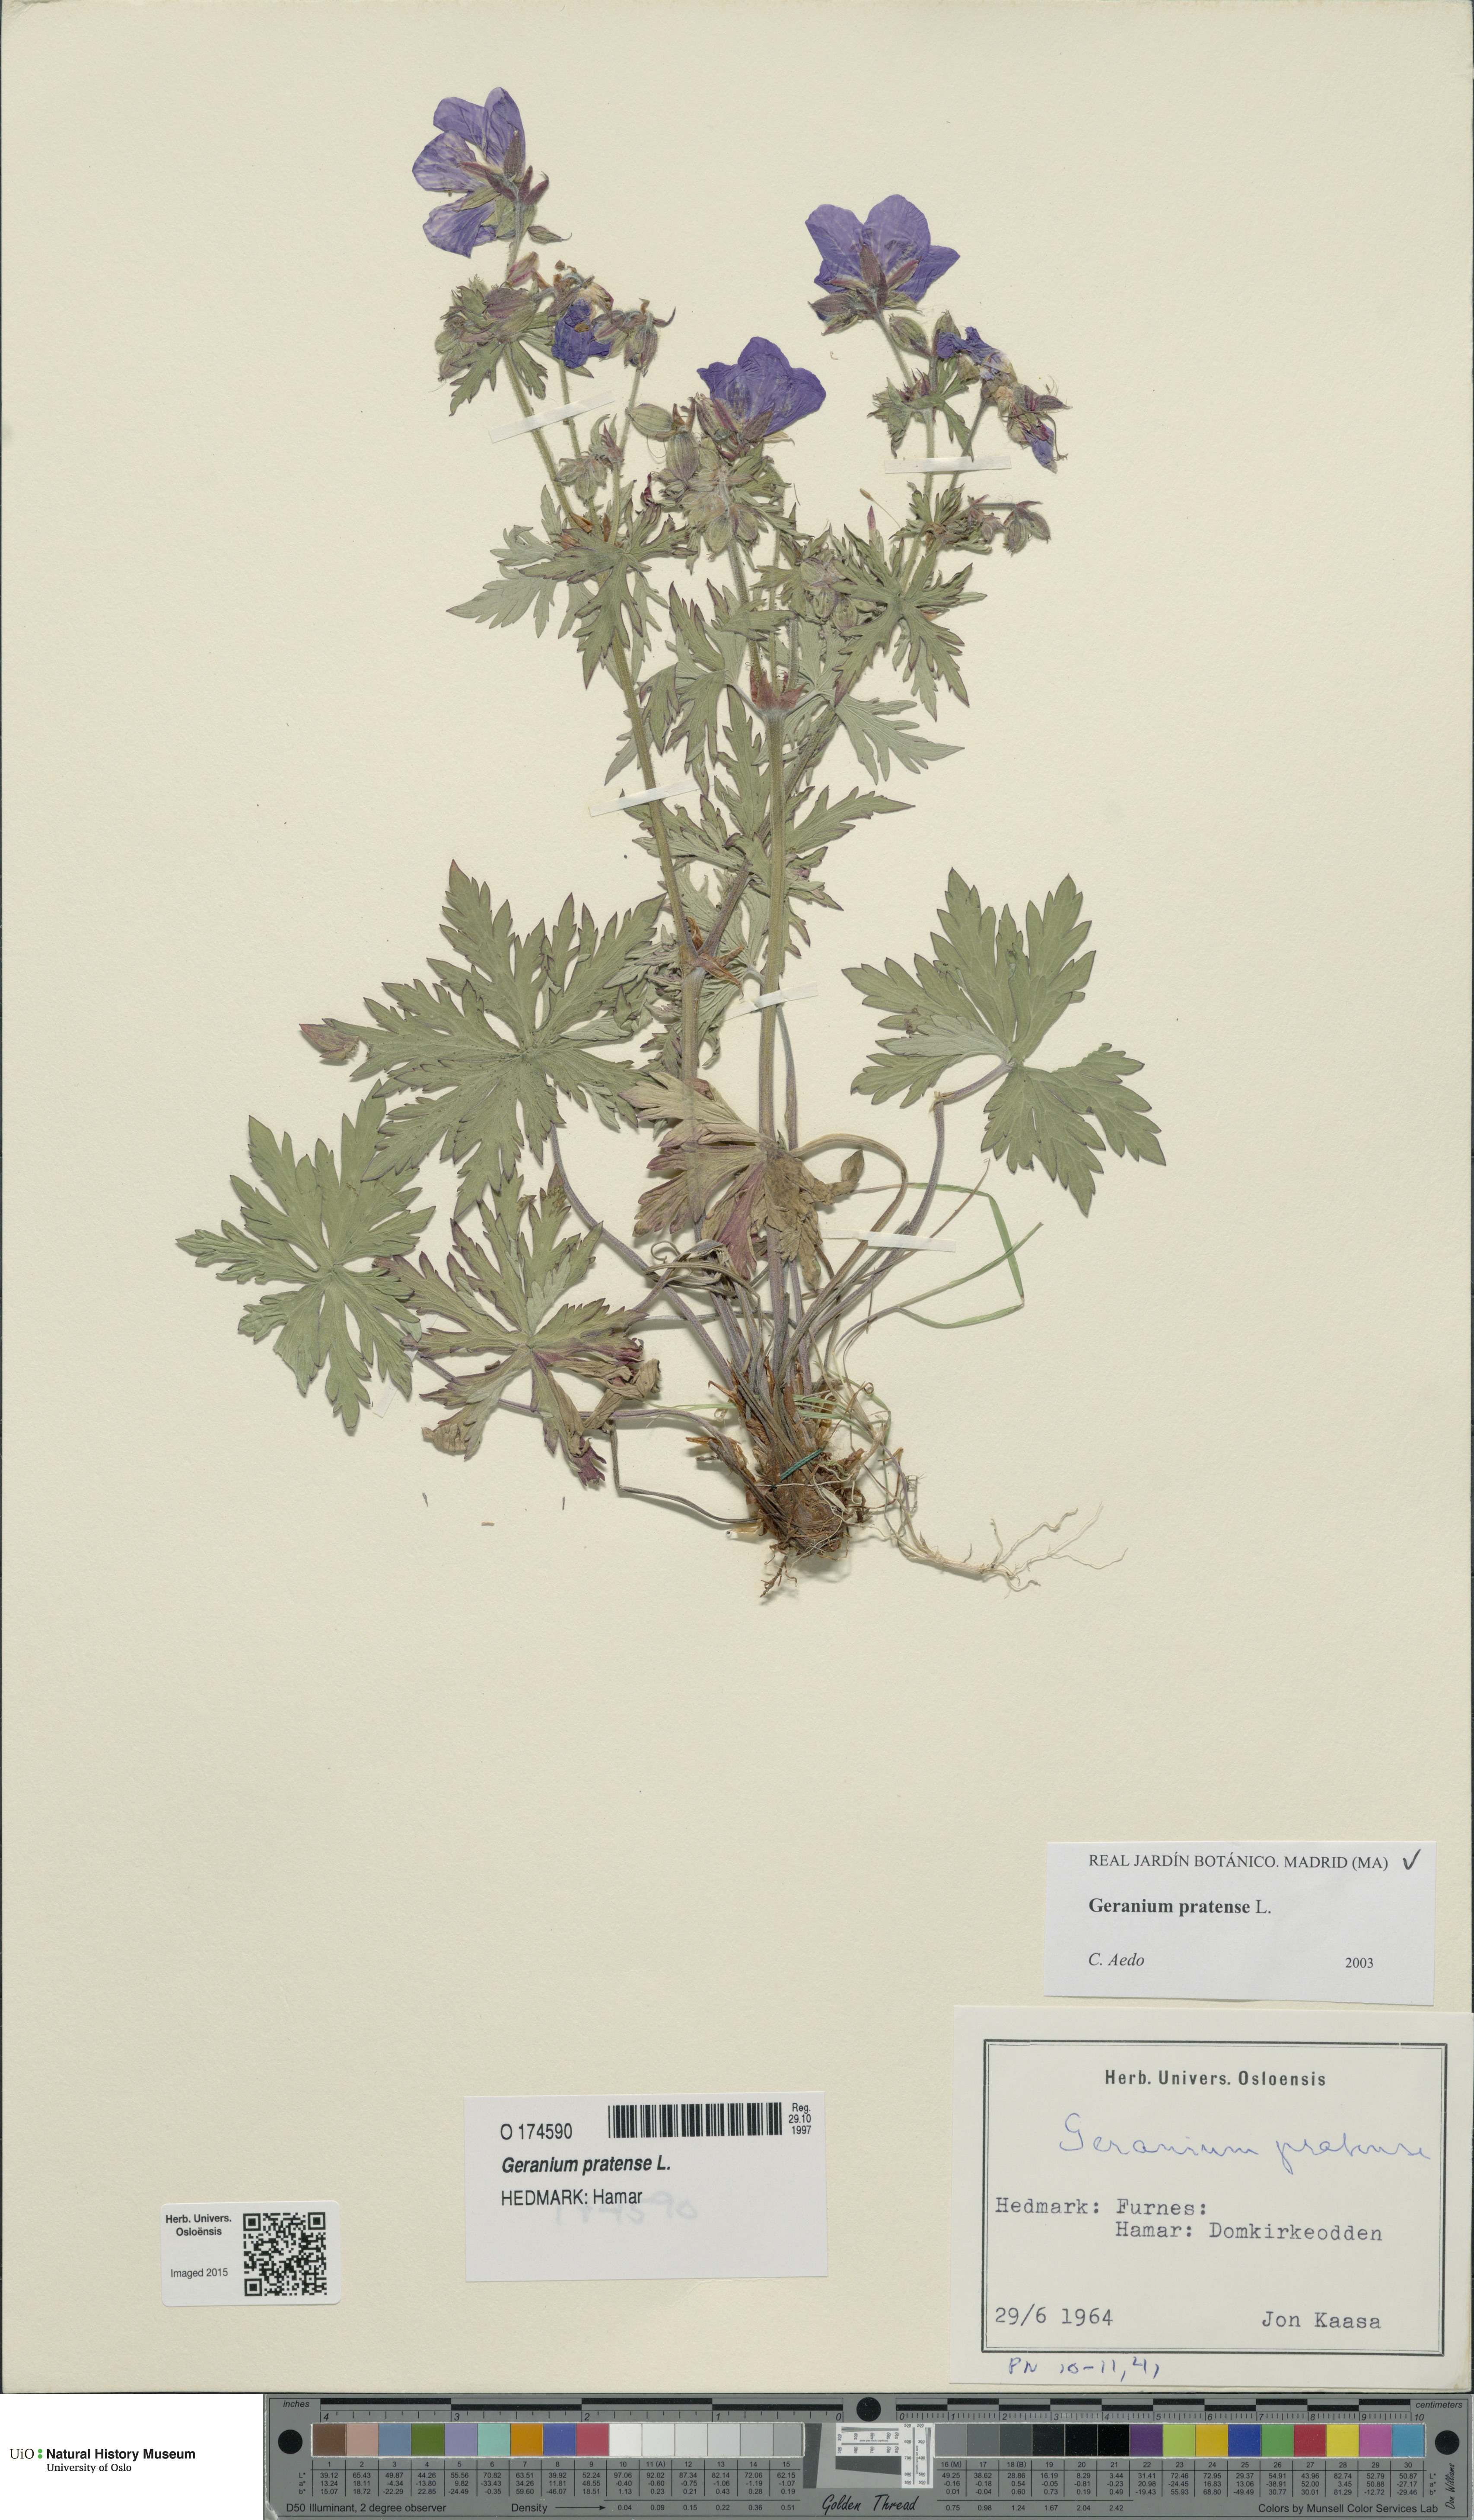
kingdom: Plantae
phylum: Tracheophyta
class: Magnoliopsida
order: Geraniales
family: Geraniaceae
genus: Geranium
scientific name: Geranium pratense
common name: Meadow crane's-bill
